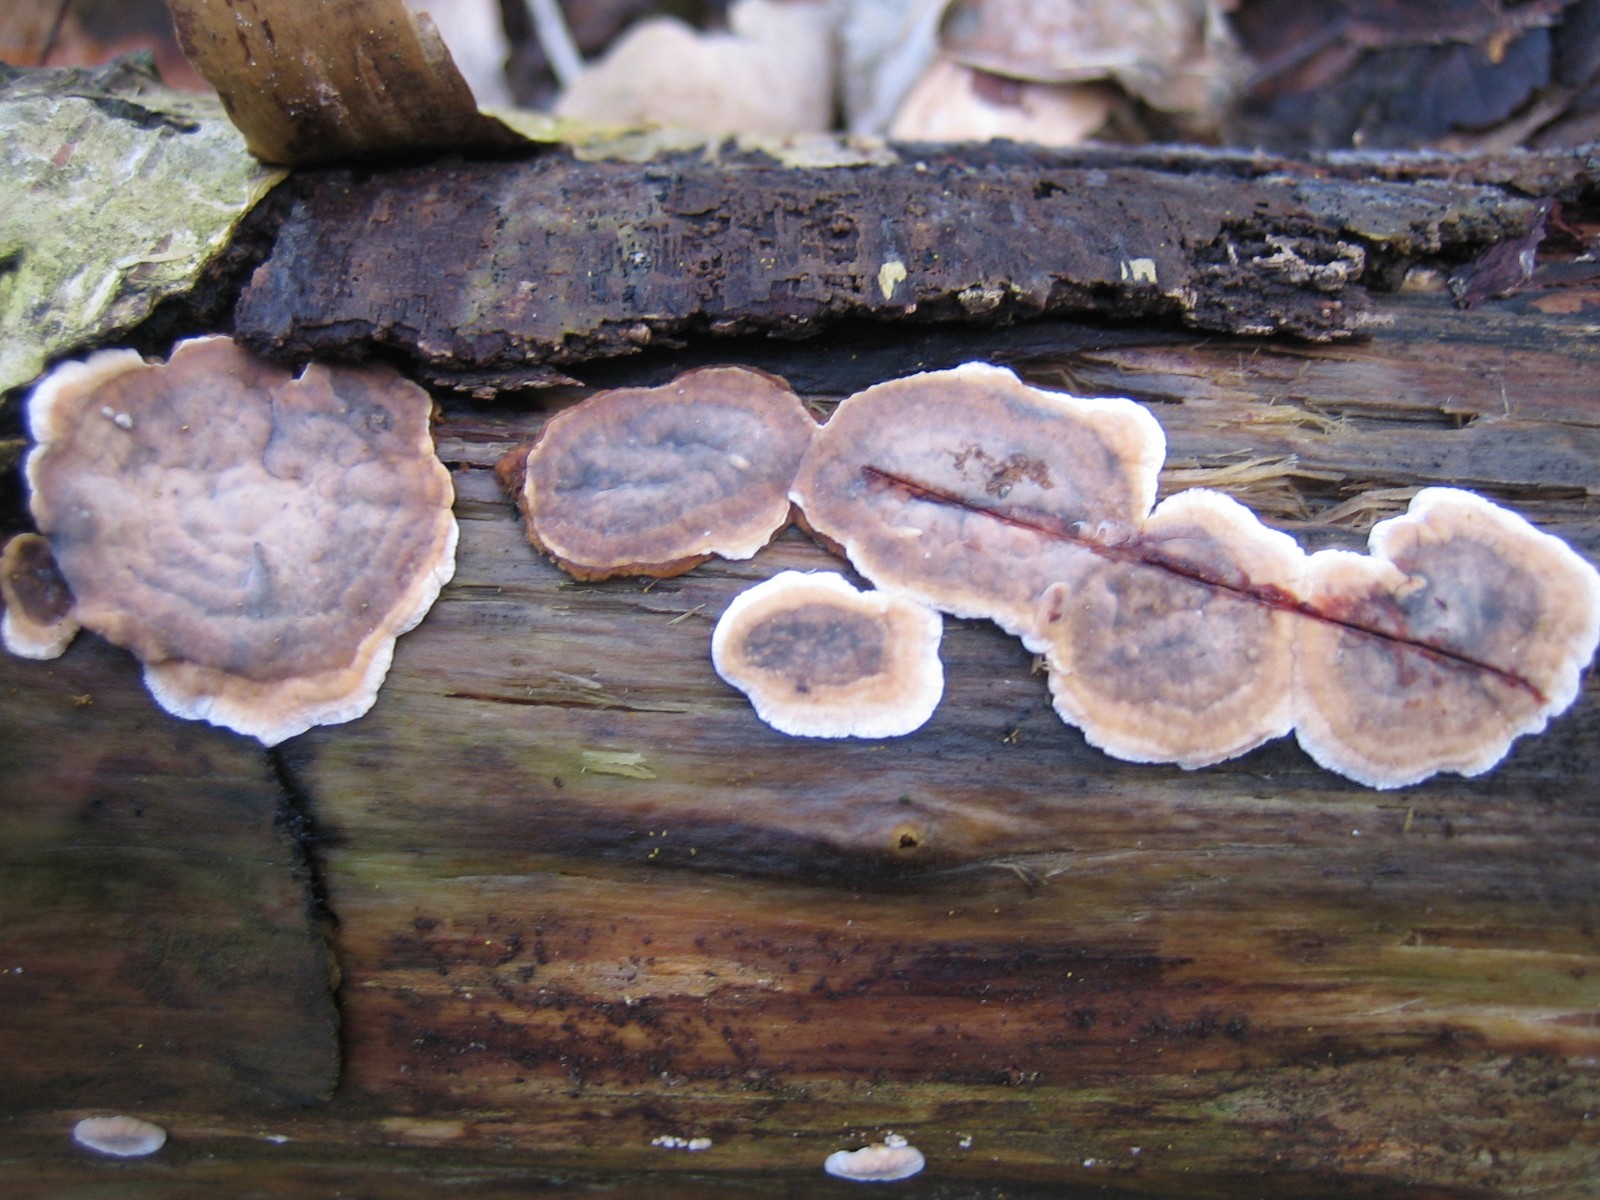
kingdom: Fungi
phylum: Basidiomycota
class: Agaricomycetes
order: Russulales
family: Stereaceae
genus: Stereum
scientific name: Stereum
